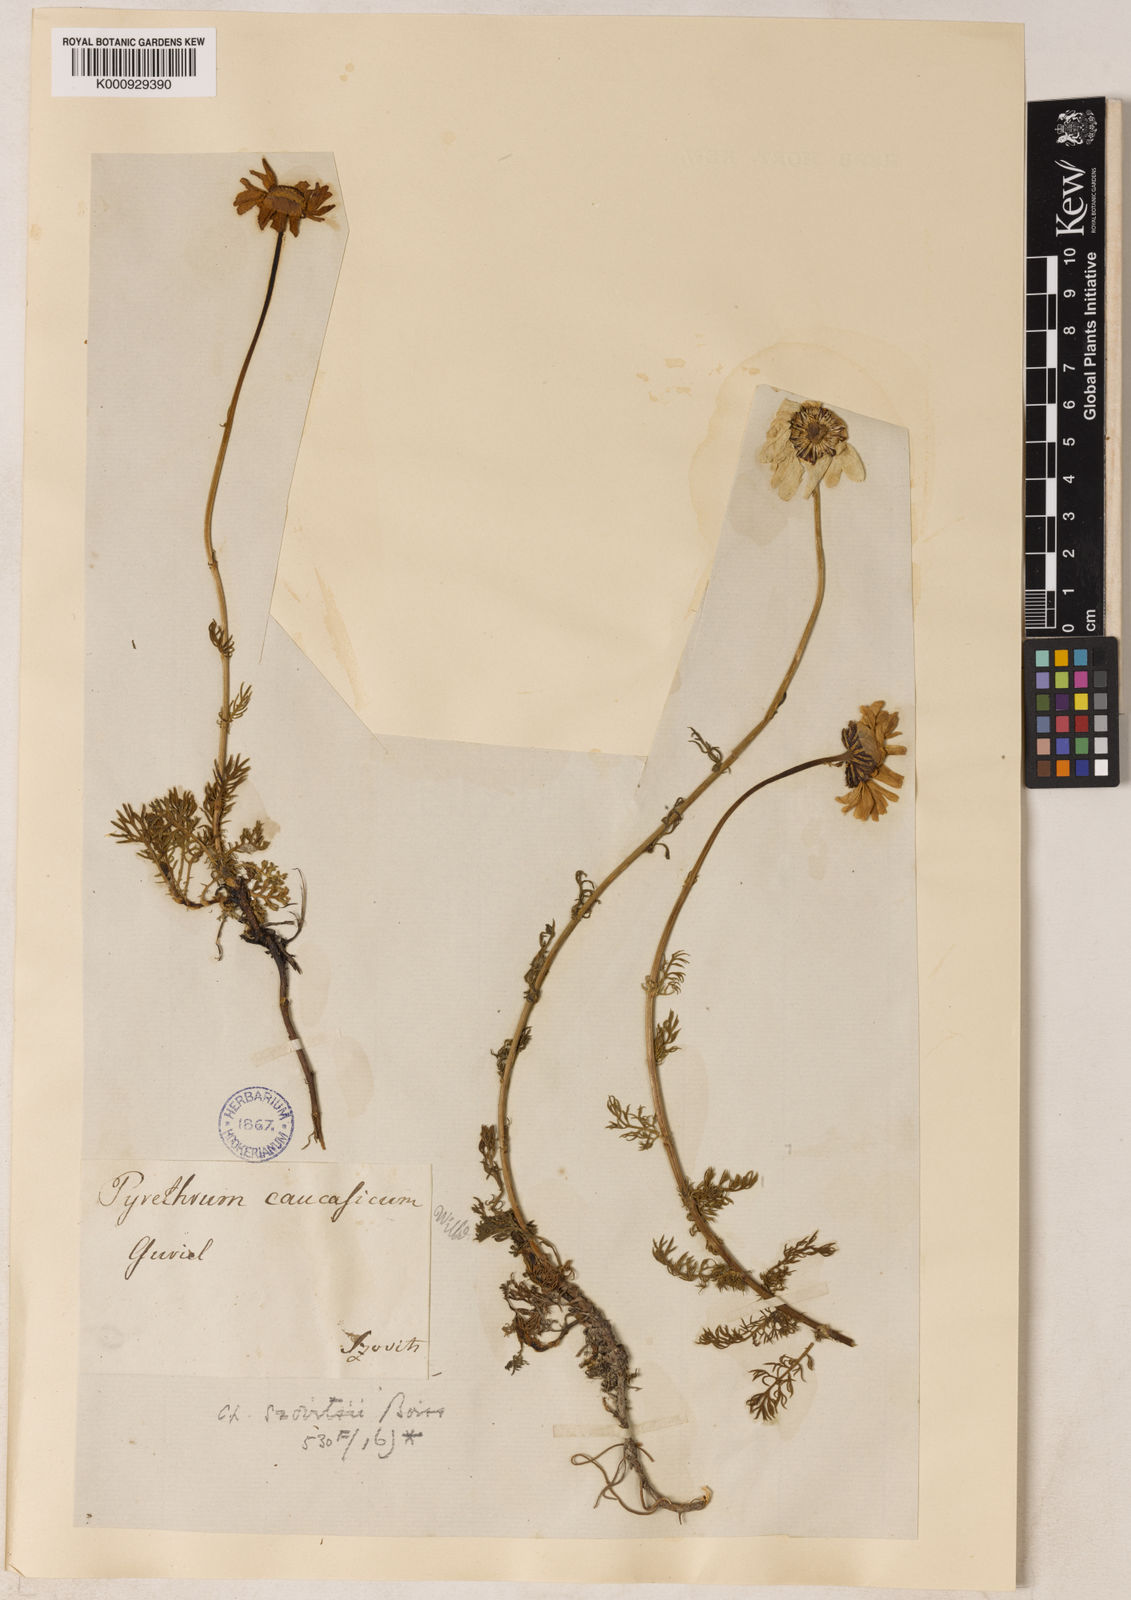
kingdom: Plantae
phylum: Tracheophyta
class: Magnoliopsida
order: Asterales
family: Asteraceae
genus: Tripleurospermum
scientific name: Tripleurospermum caucasicum
